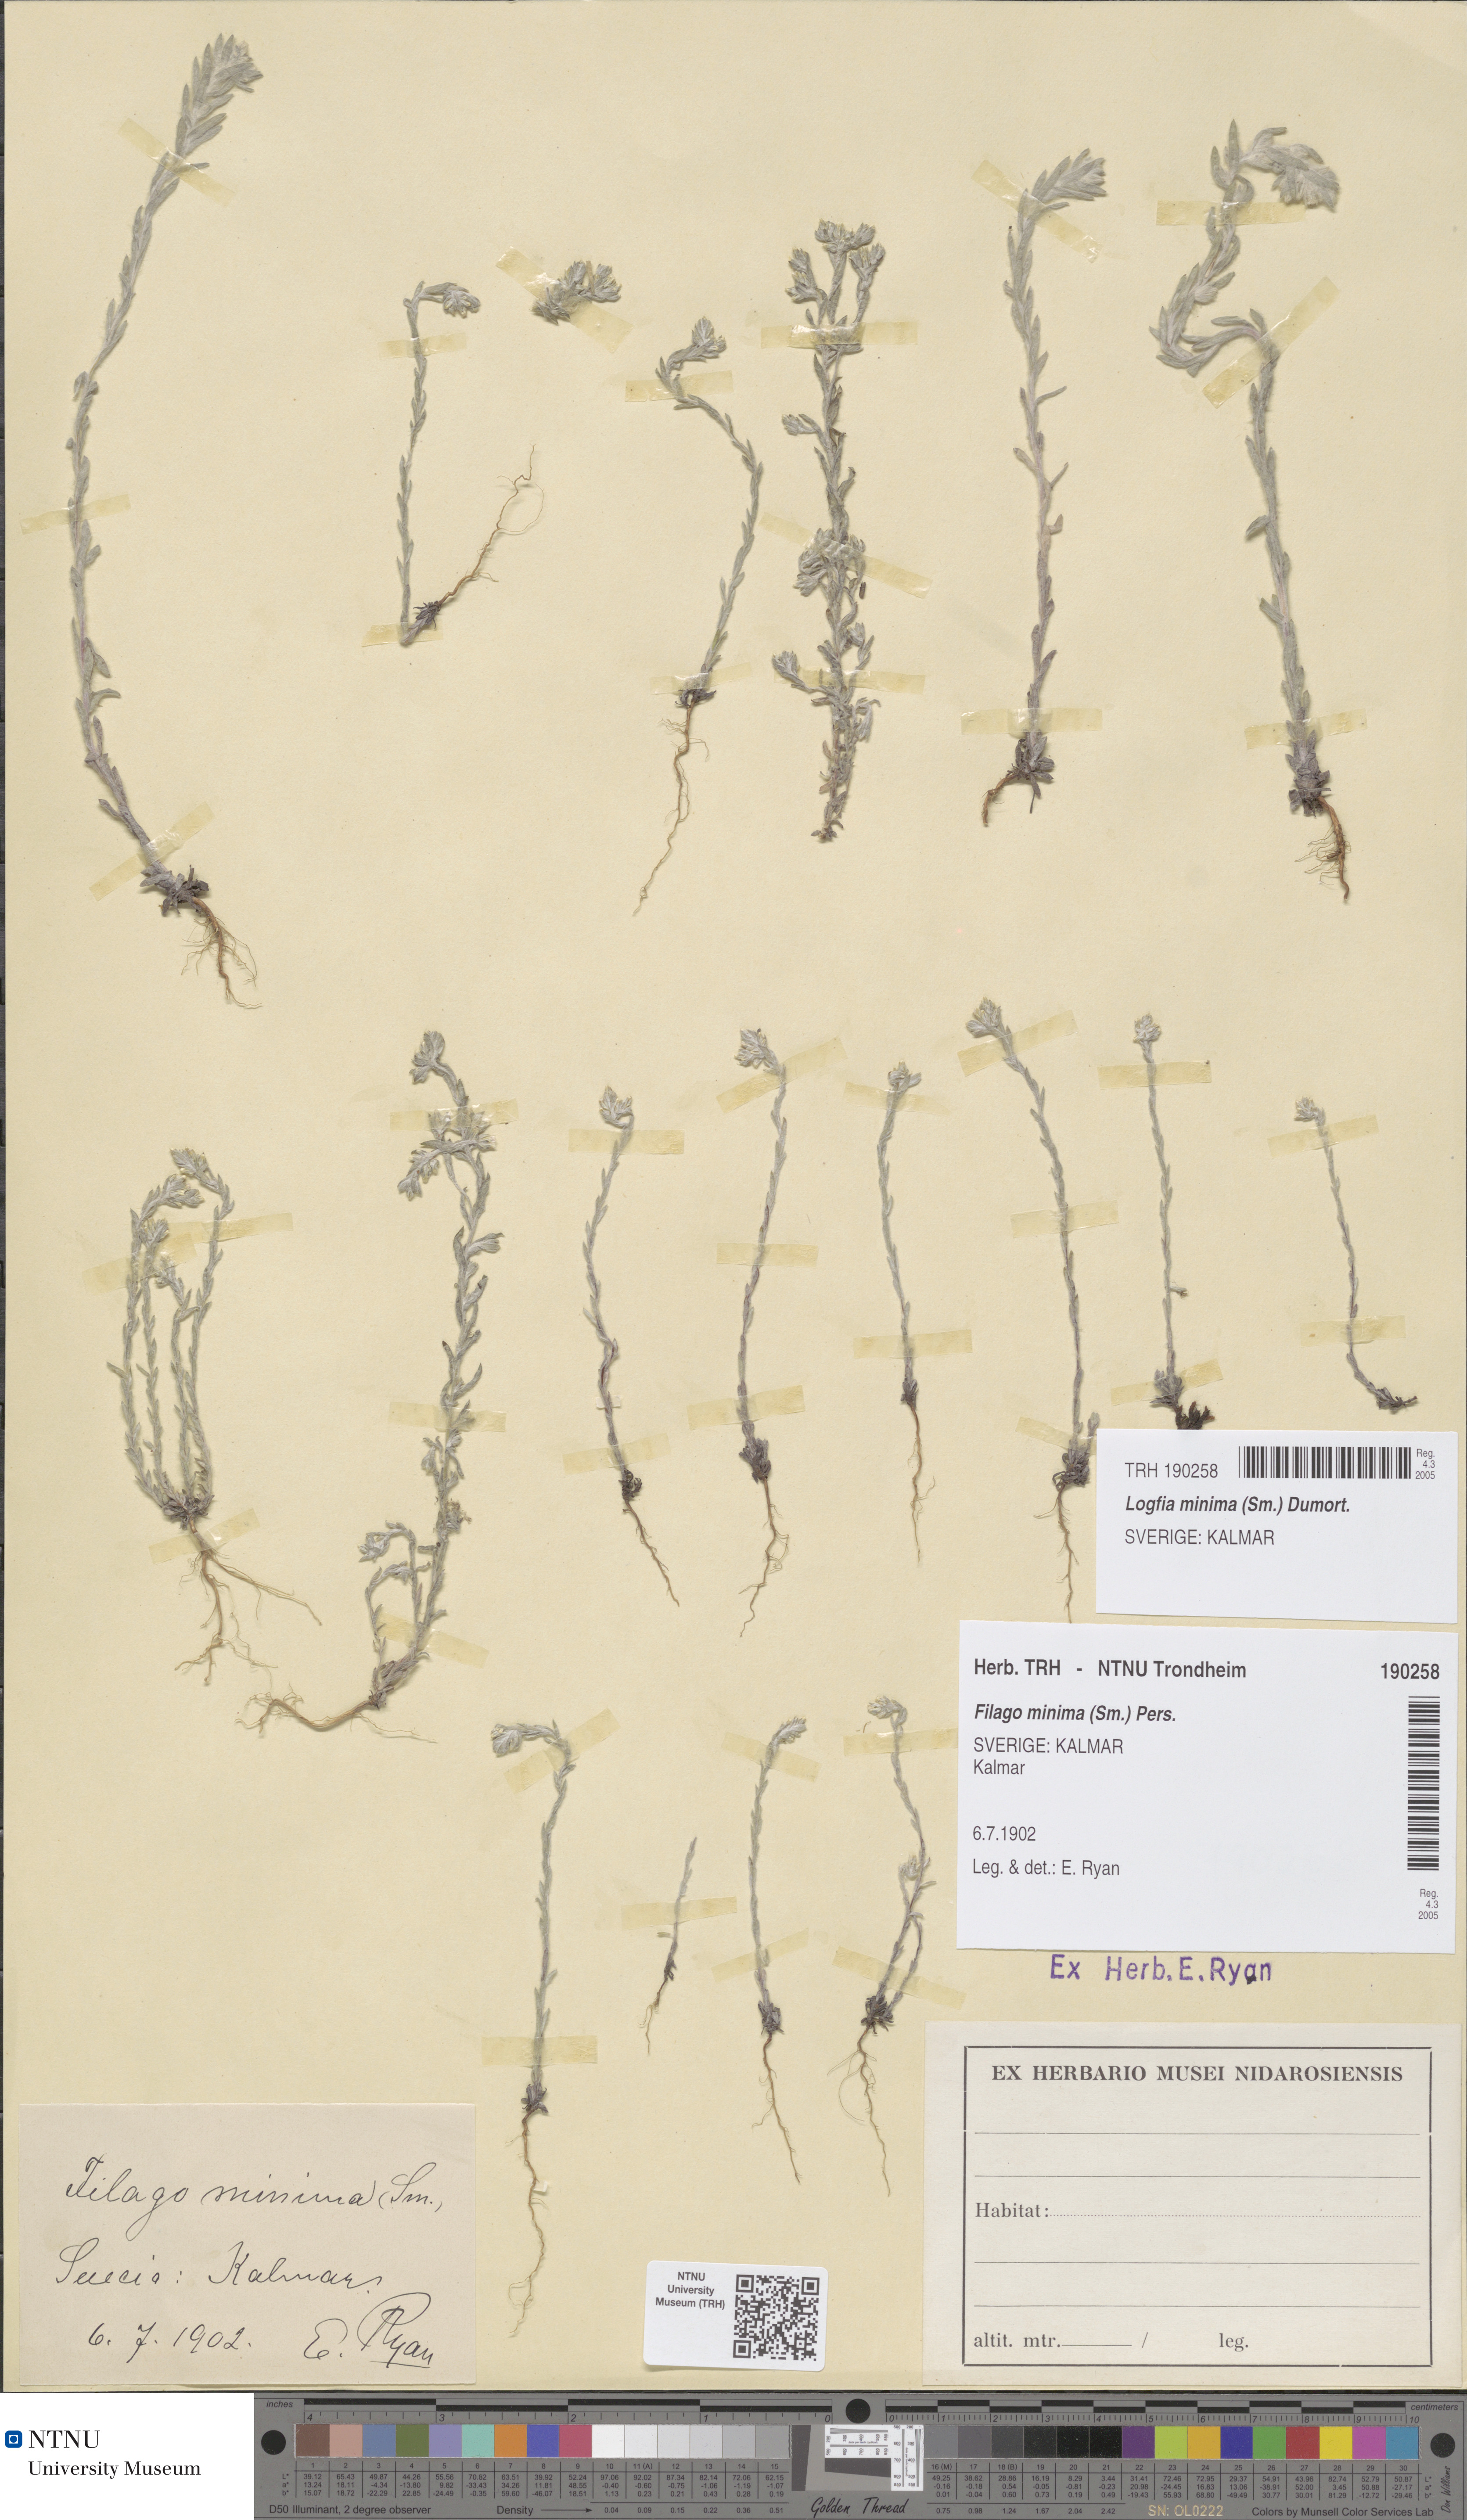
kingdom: Plantae
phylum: Tracheophyta
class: Magnoliopsida
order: Asterales
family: Asteraceae
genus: Logfia
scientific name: Logfia minima
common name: Little cottonrose
